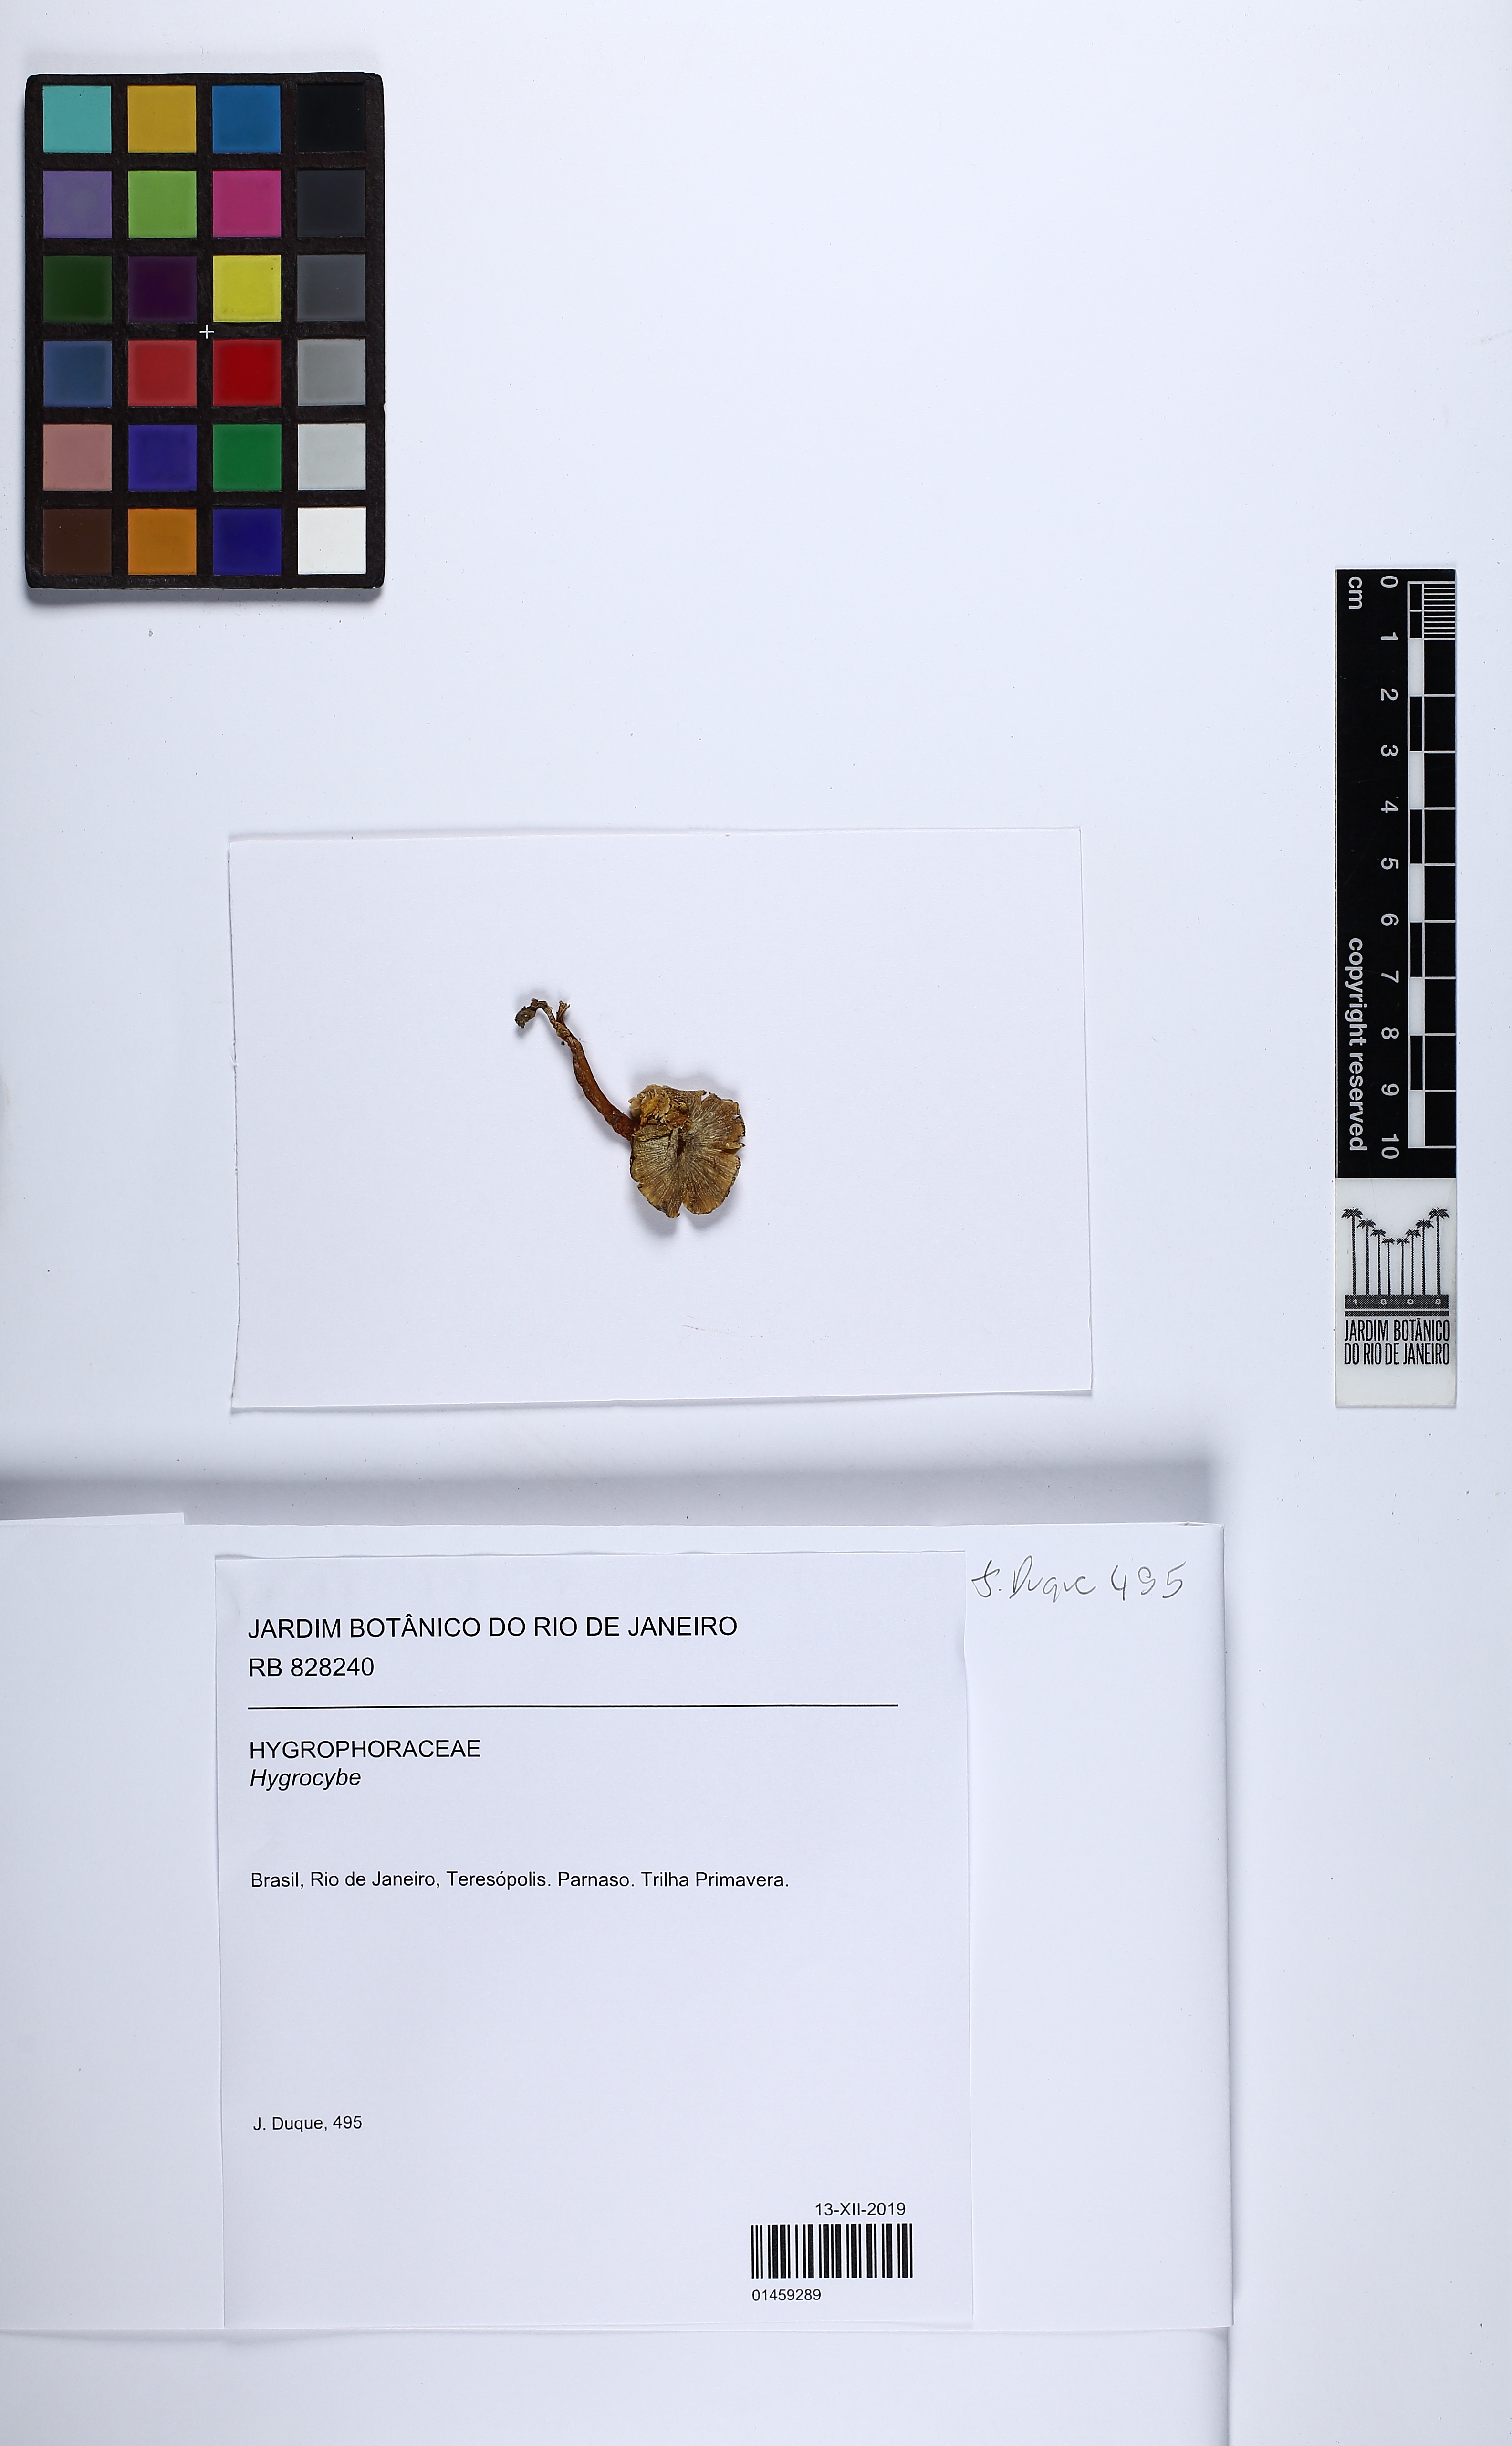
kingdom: Fungi
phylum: Basidiomycota
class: Agaricomycetes
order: Agaricales
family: Hygrophoraceae
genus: Hygrocybe
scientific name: Hygrocybe
